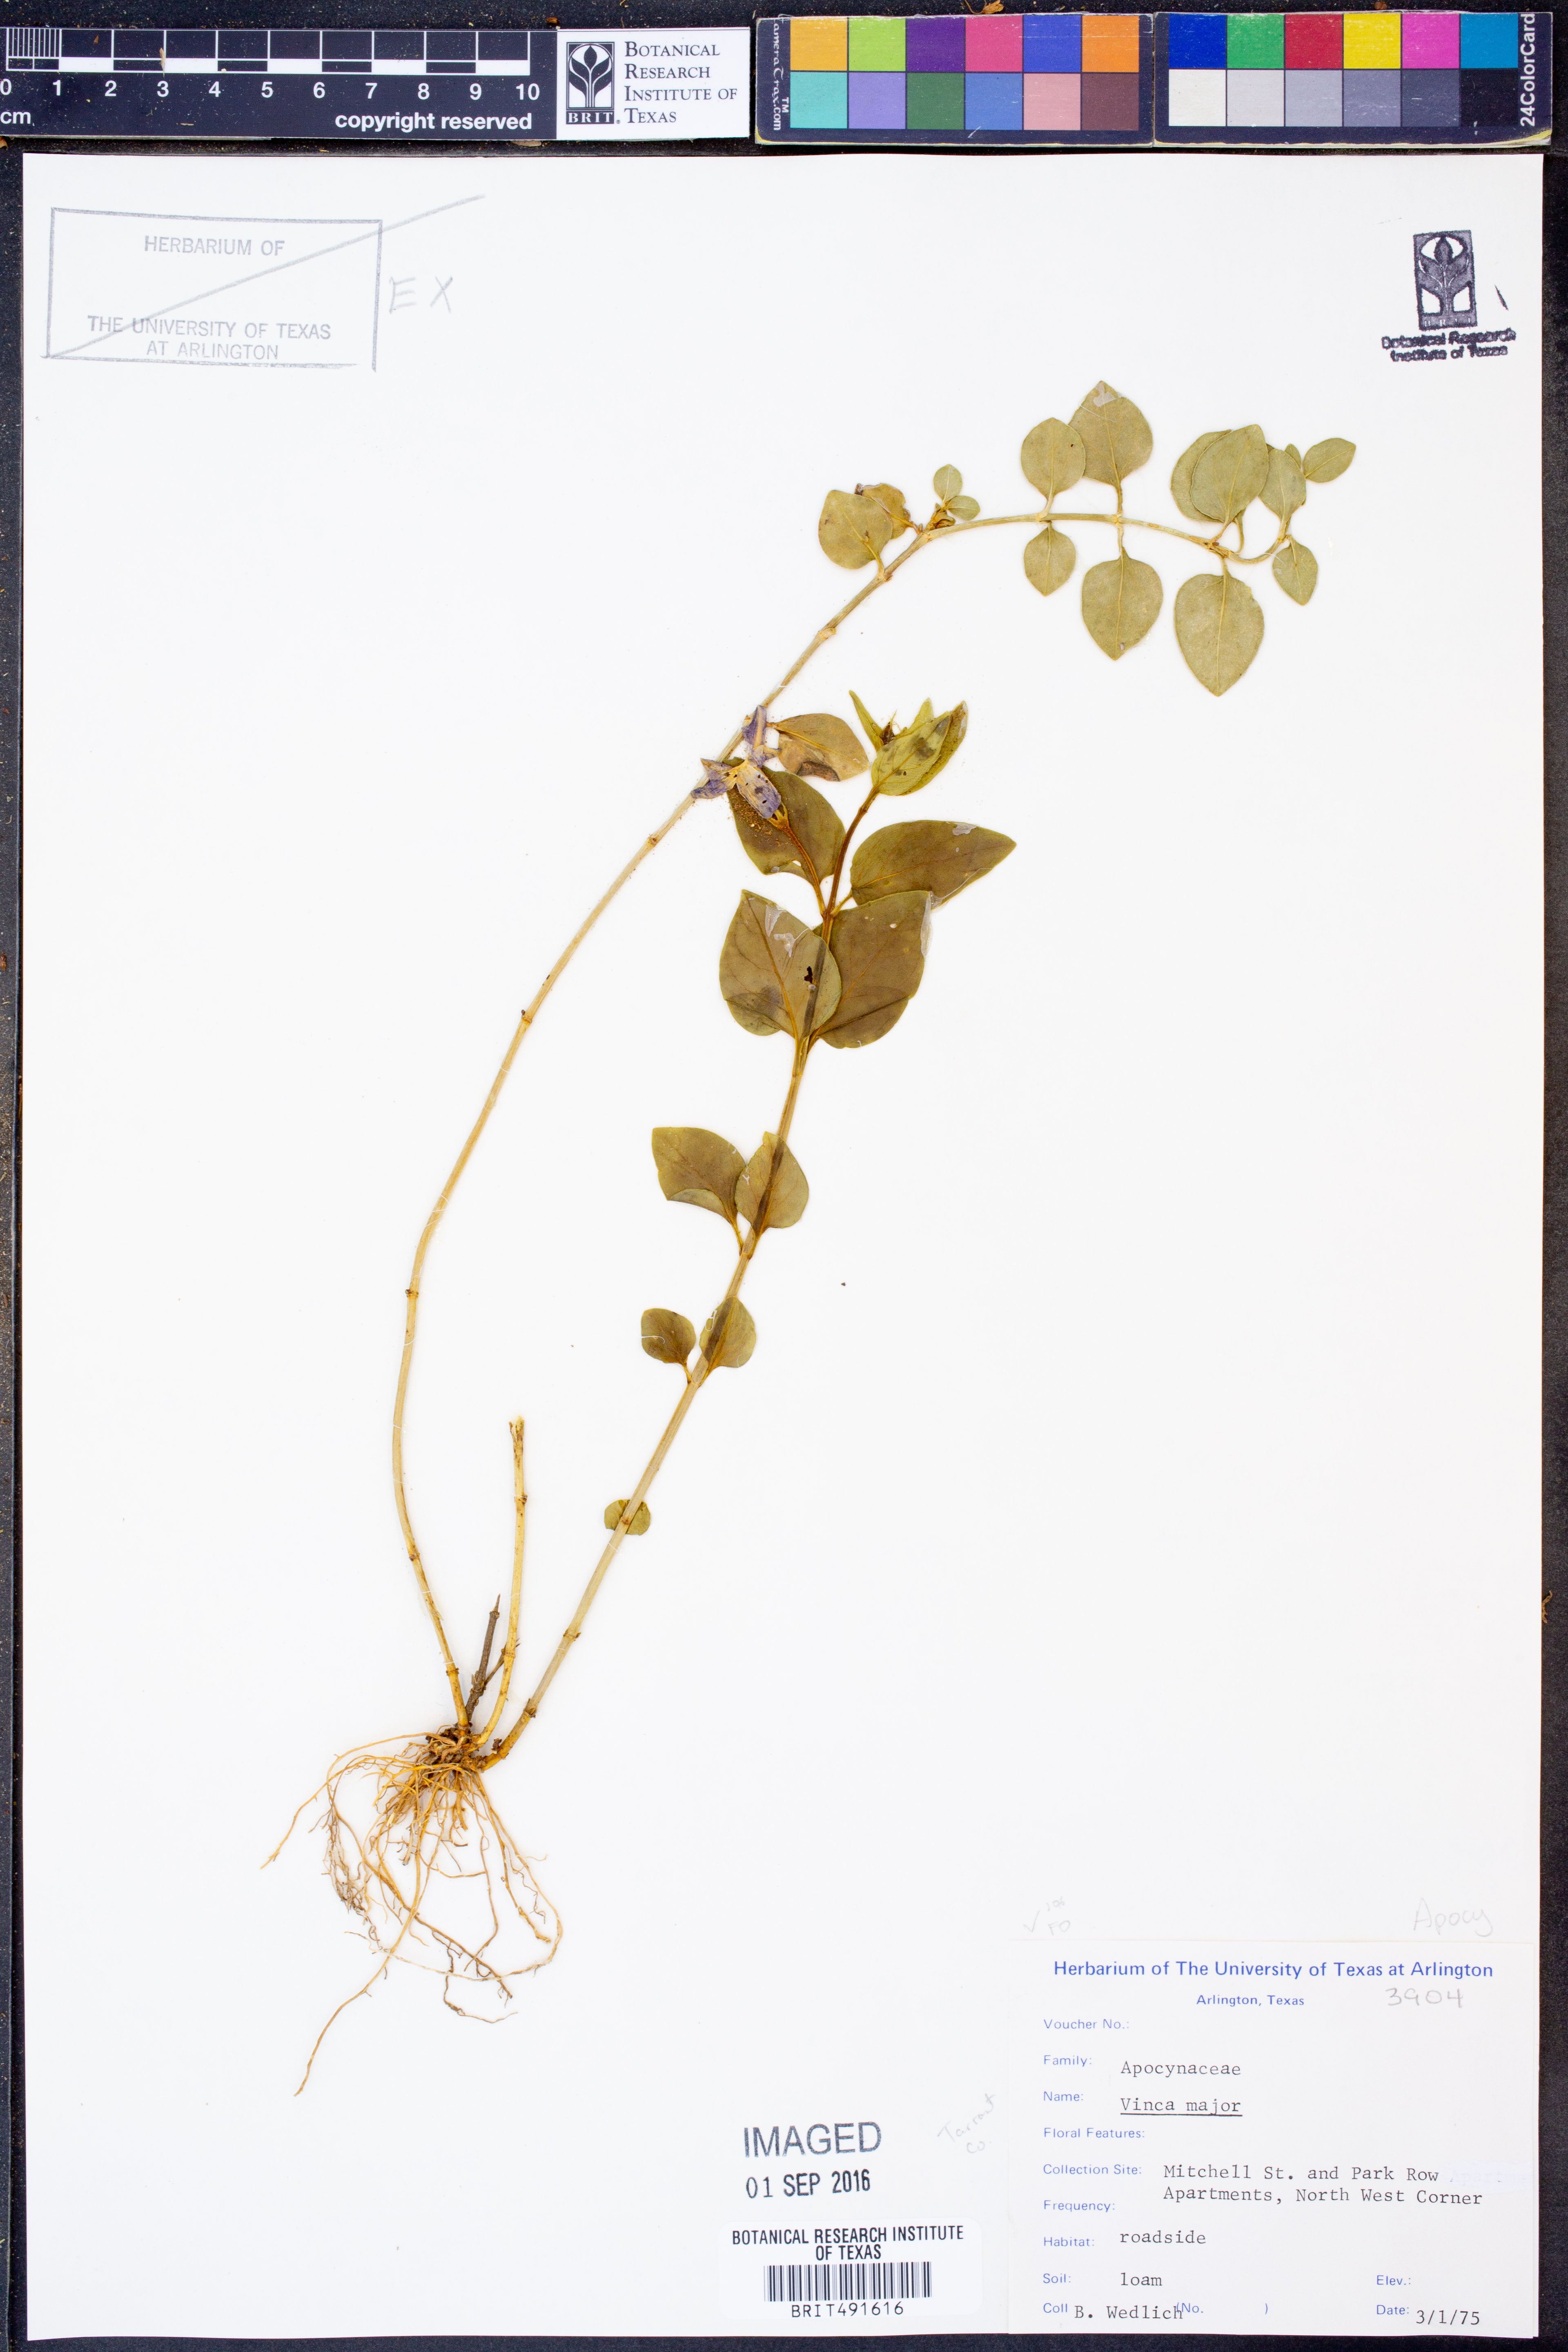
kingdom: Plantae
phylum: Tracheophyta
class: Magnoliopsida
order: Gentianales
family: Apocynaceae
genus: Vinca
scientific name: Vinca major
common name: Greater periwinkle
